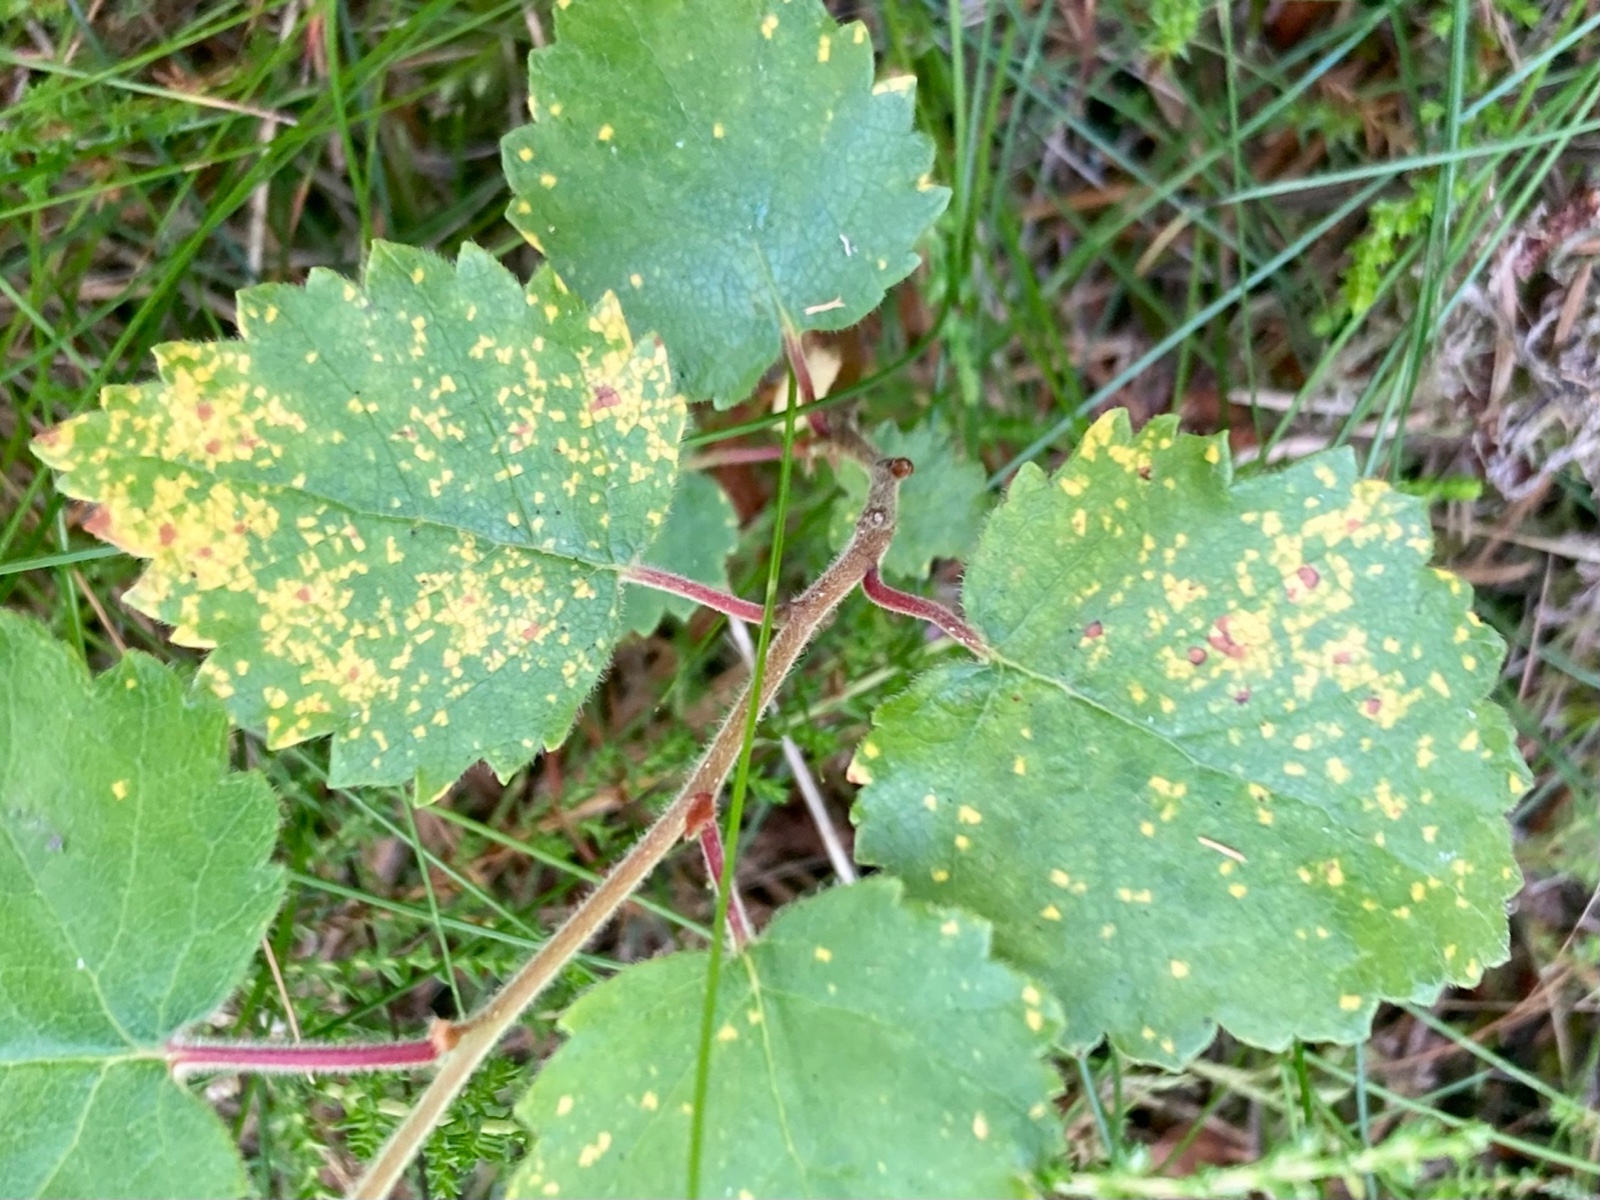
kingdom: Fungi
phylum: Basidiomycota
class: Pucciniomycetes
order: Pucciniales
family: Pucciniastraceae
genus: Melampsoridium
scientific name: Melampsoridium betulinum
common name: Birch rust
